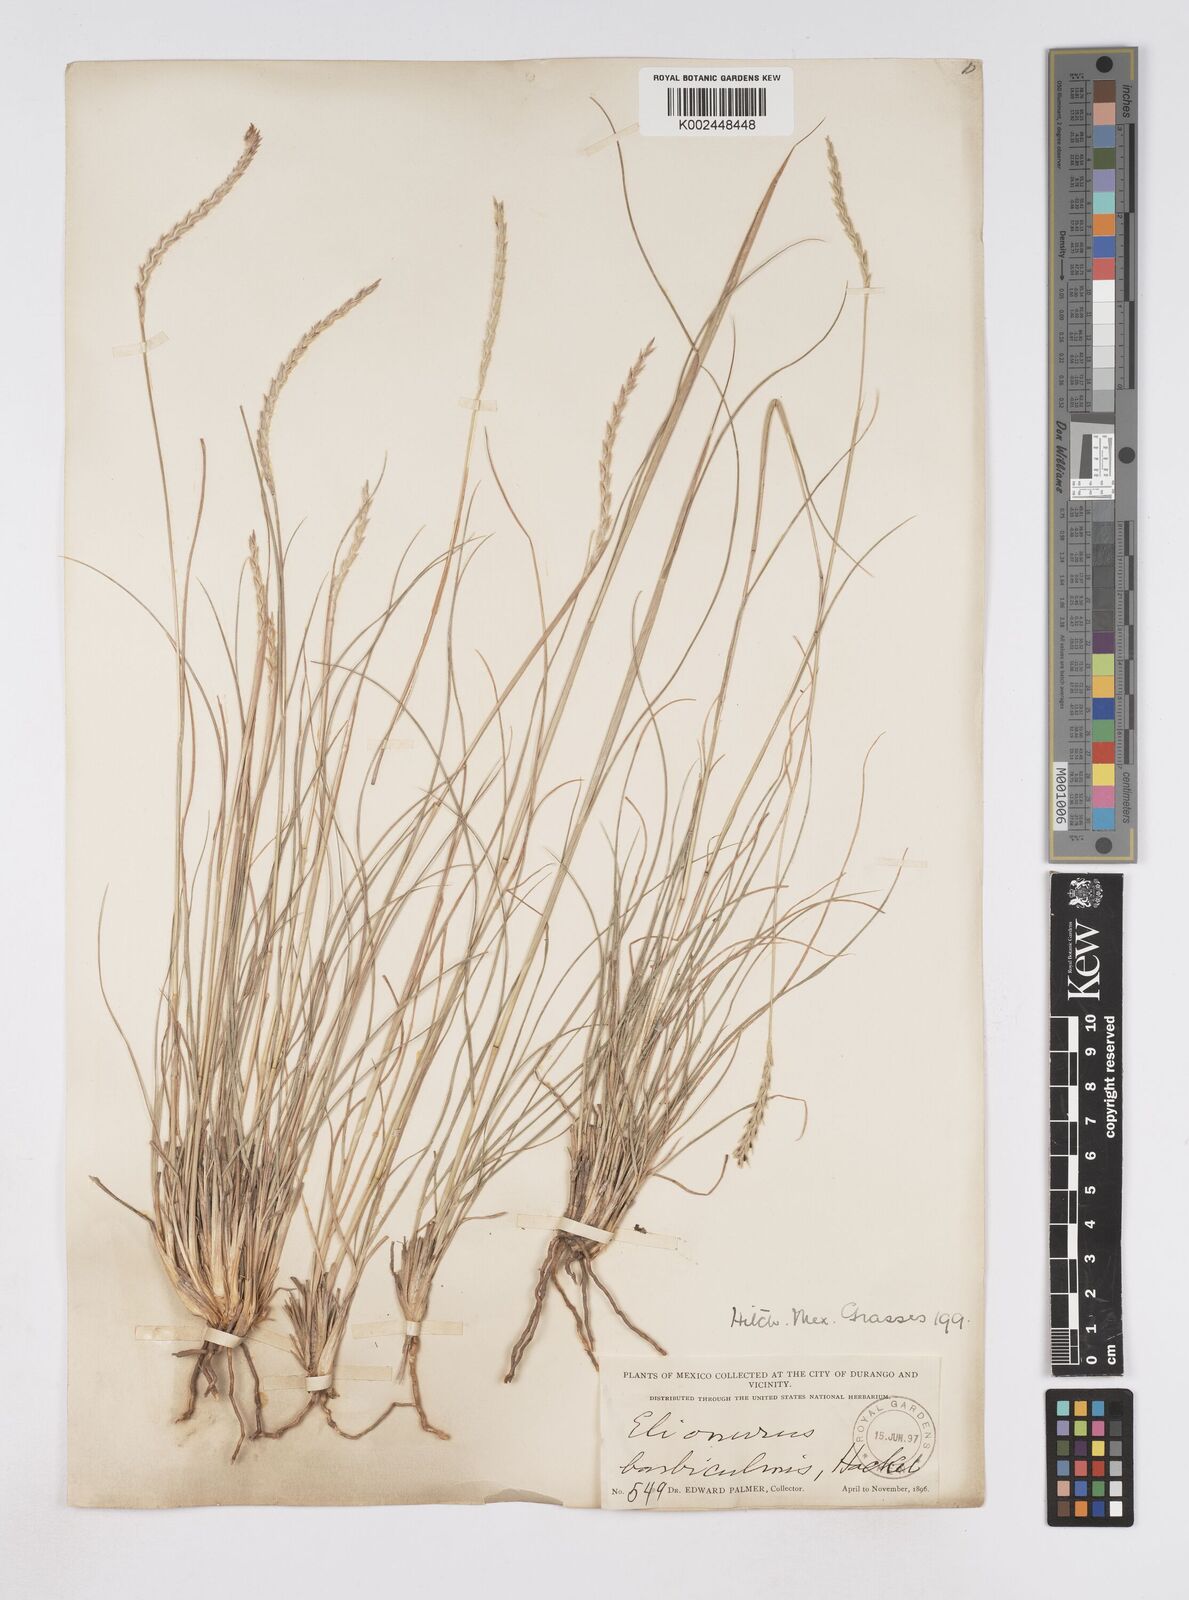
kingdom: Plantae
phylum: Tracheophyta
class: Liliopsida
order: Poales
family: Poaceae
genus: Elionurus
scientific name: Elionurus barbiculmis
